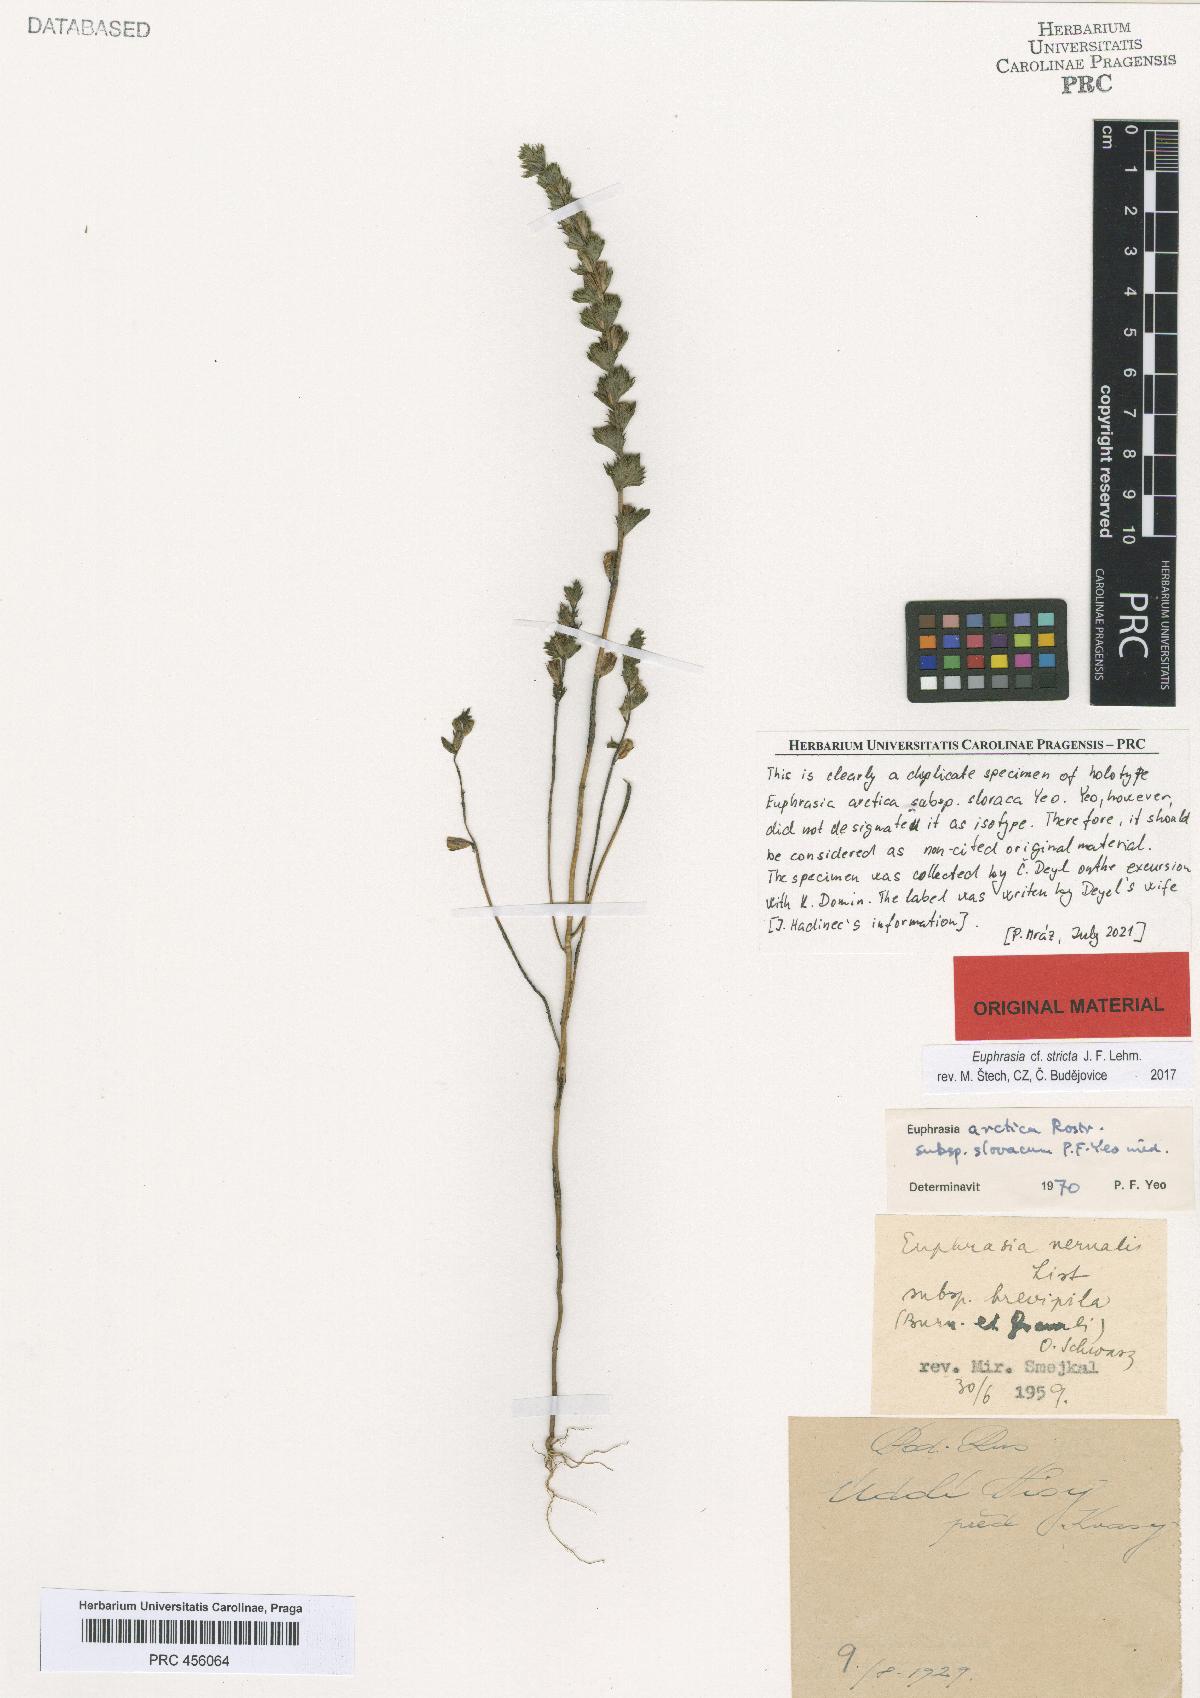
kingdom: Plantae
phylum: Tracheophyta
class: Magnoliopsida
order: Lamiales
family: Orobanchaceae
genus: Euphrasia
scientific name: Euphrasia vernalis
